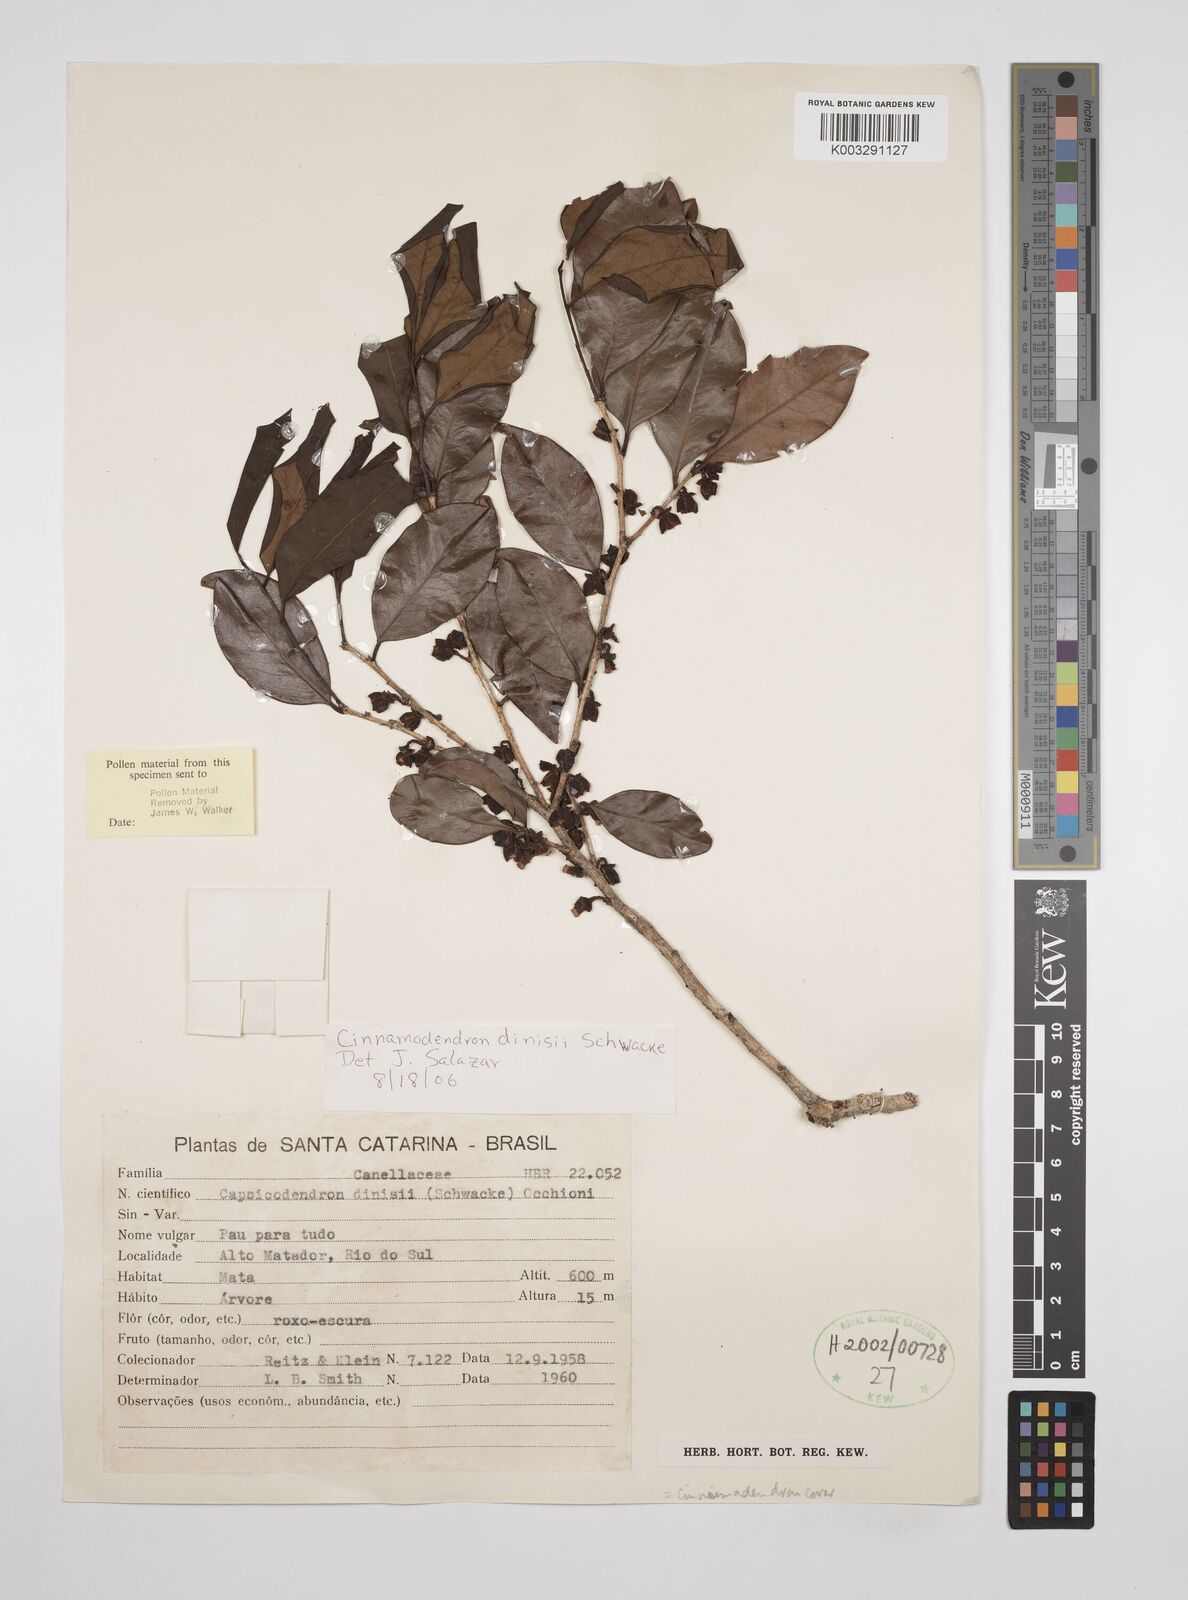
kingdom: Plantae
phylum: Tracheophyta
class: Magnoliopsida
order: Canellales
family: Canellaceae
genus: Cinnamodendron
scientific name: Cinnamodendron dinisii
